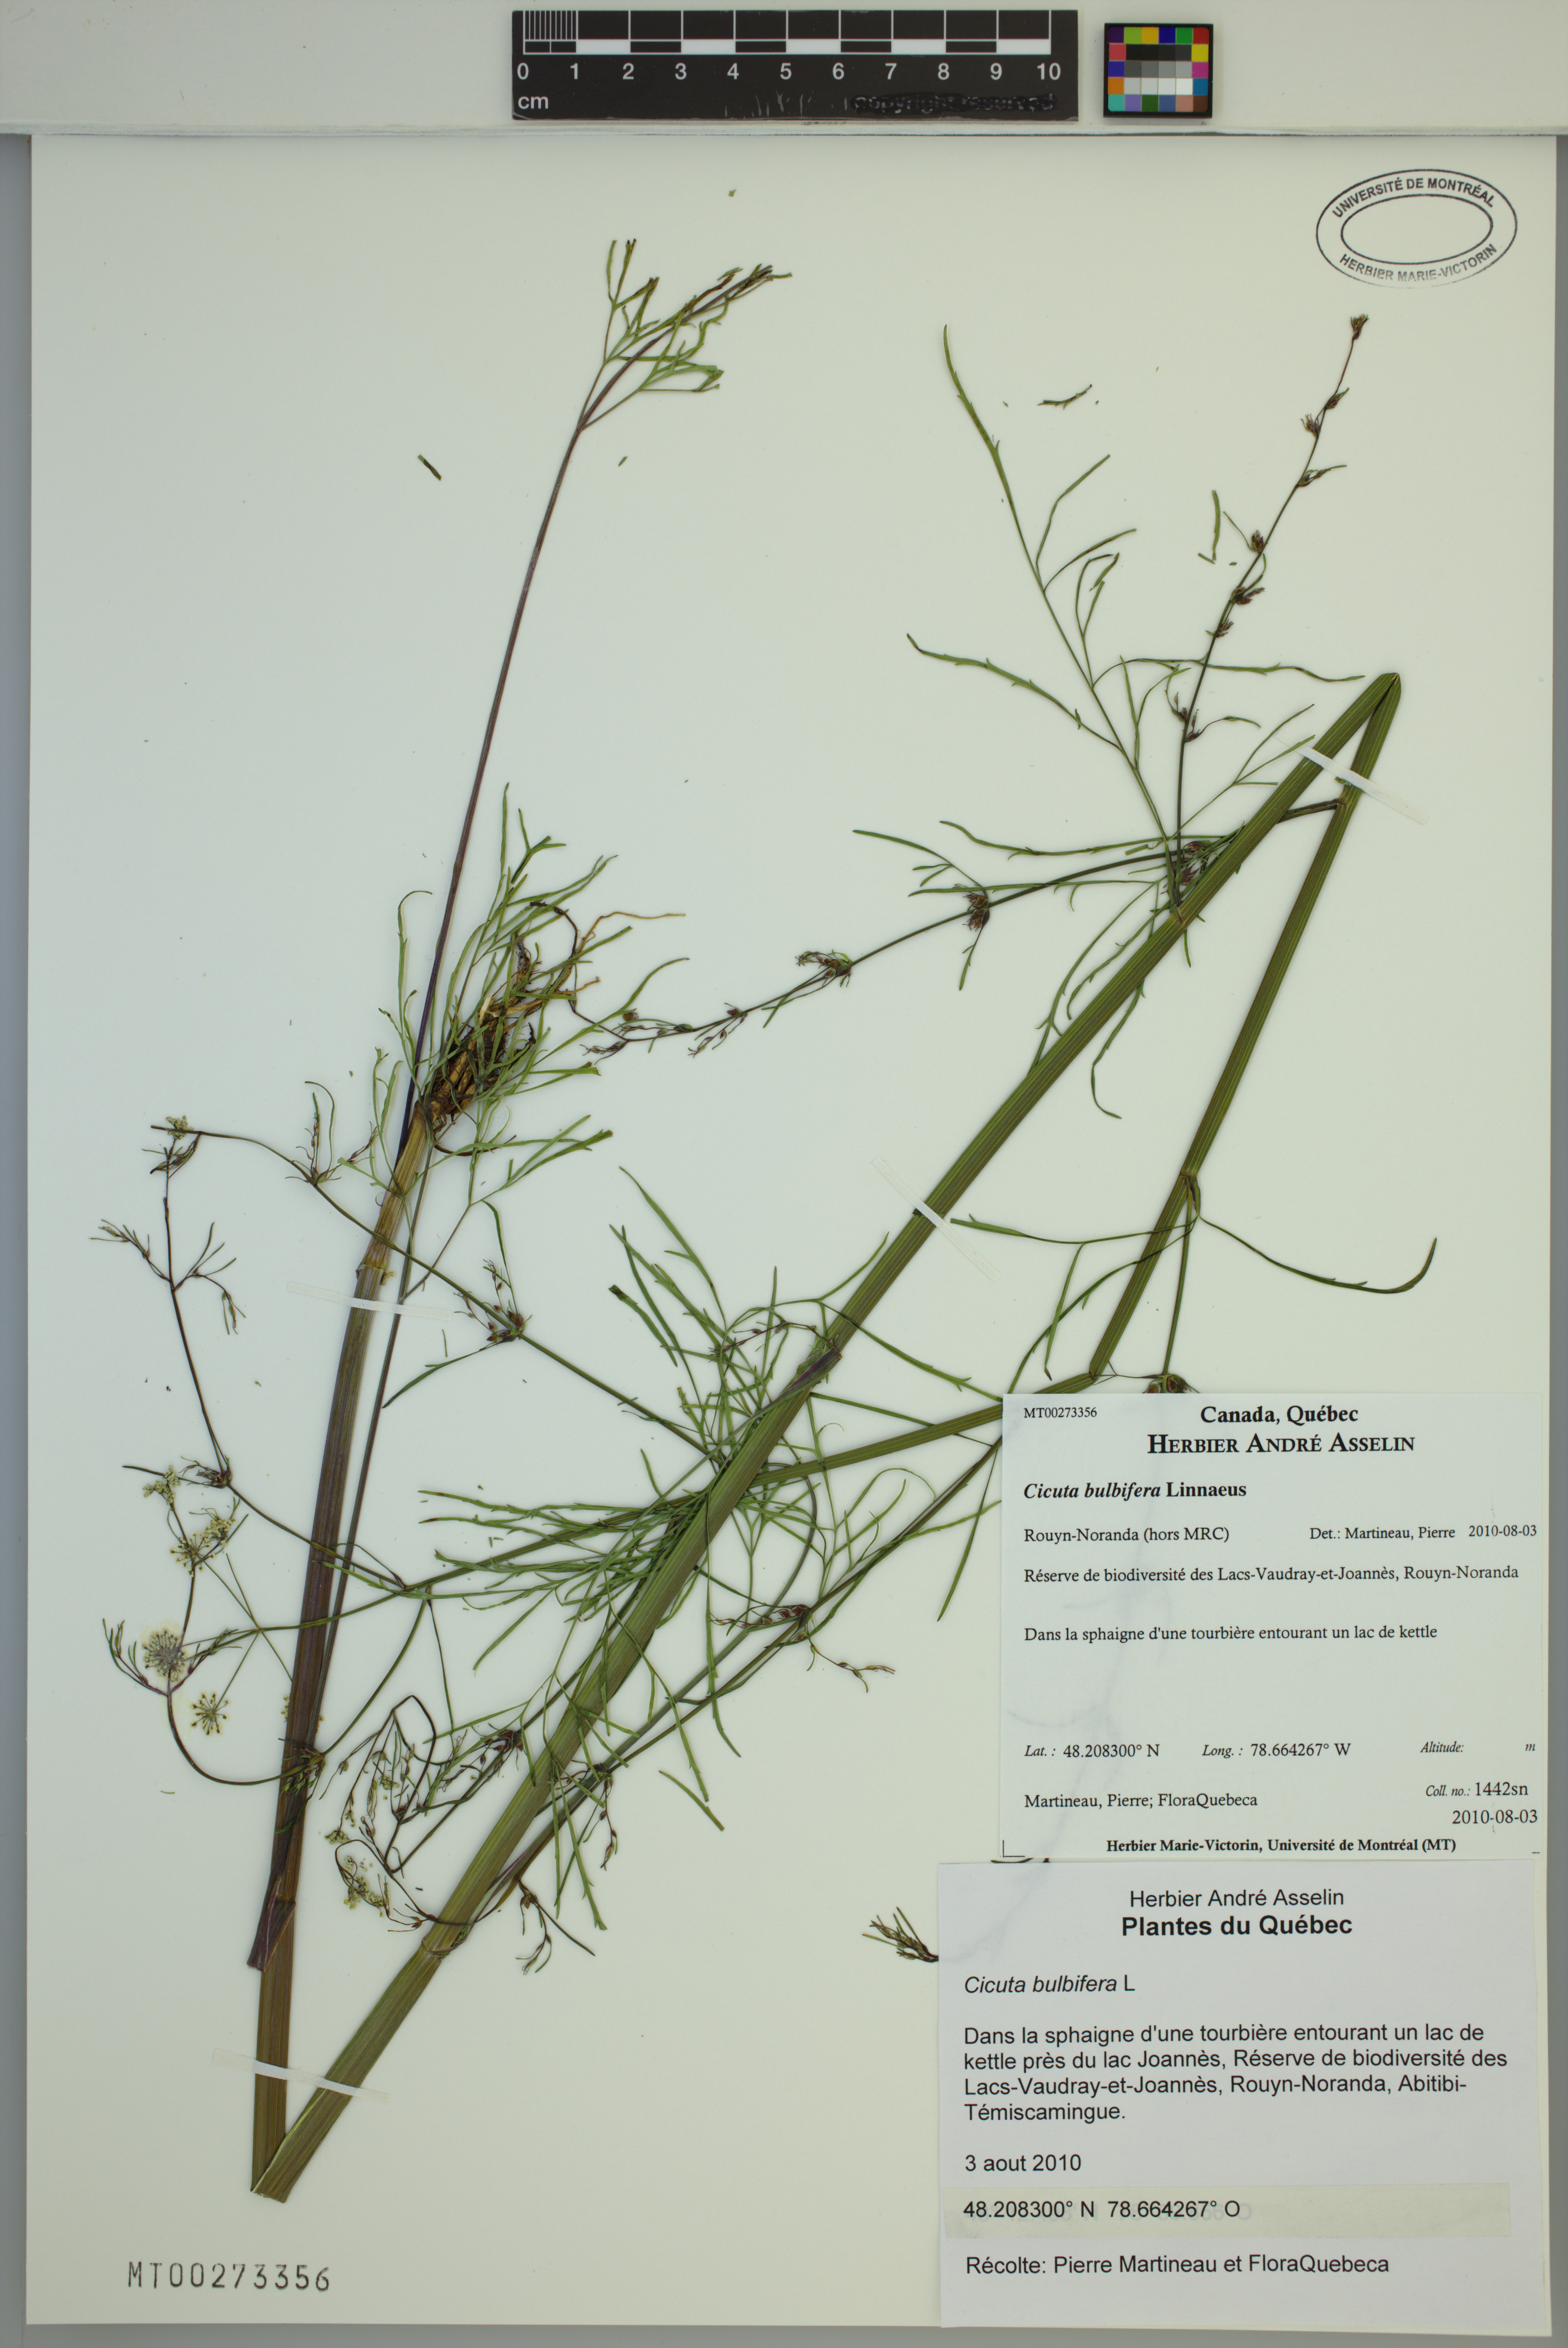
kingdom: Plantae
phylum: Tracheophyta
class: Magnoliopsida
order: Apiales
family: Apiaceae
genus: Cicuta
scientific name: Cicuta bulbifera
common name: Bulb-bearing water-hemlock
